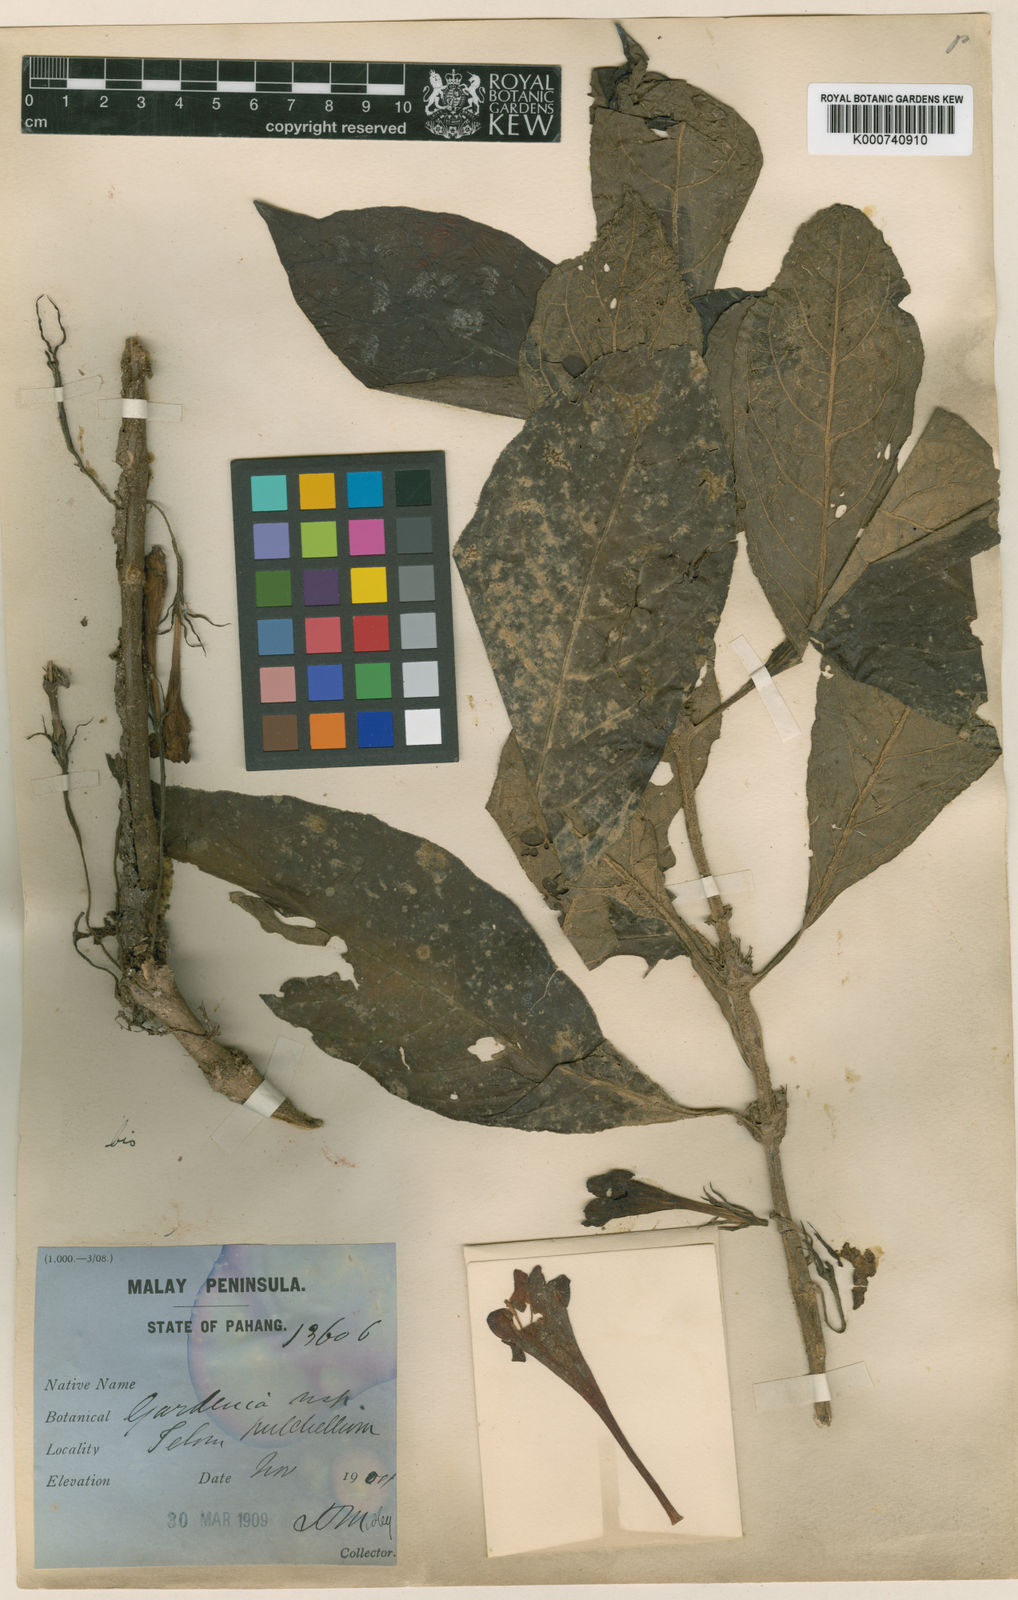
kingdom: Plantae
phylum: Tracheophyta
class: Magnoliopsida
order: Gentianales
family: Rubiaceae
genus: Acranthera
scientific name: Acranthera virescens
